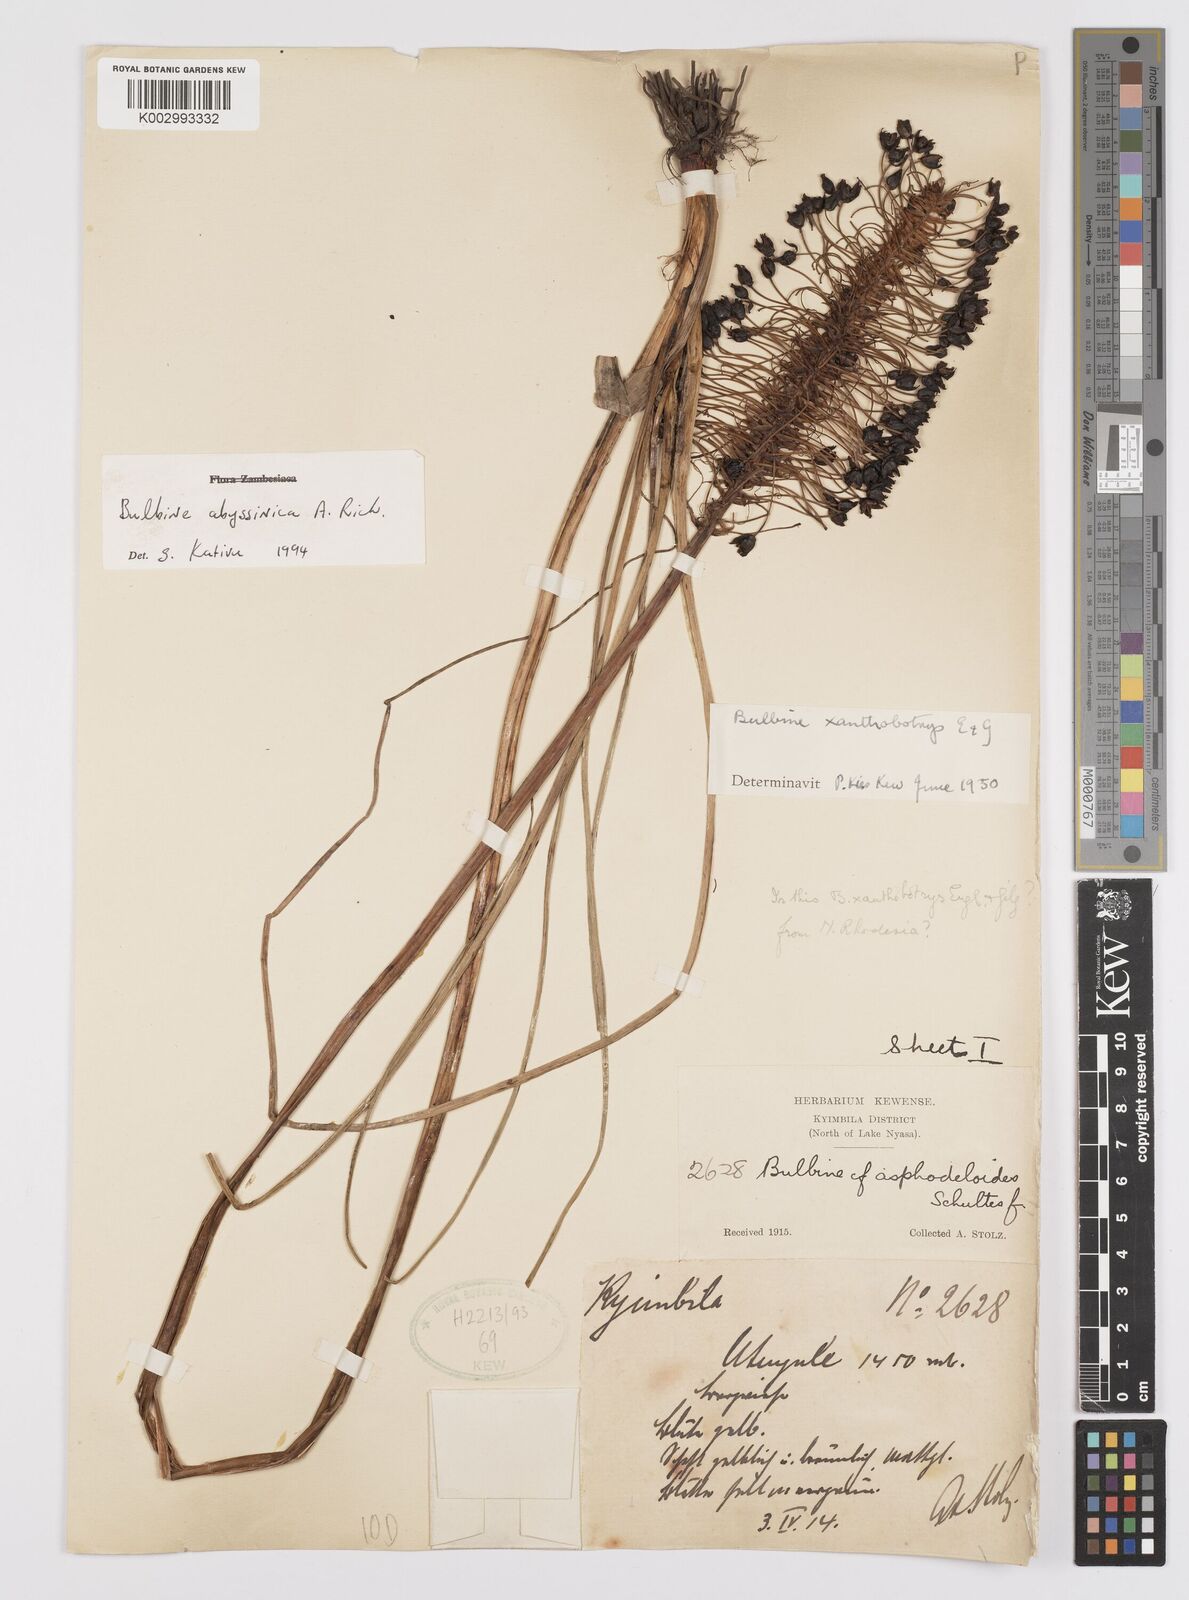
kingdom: Plantae
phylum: Tracheophyta
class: Liliopsida
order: Asparagales
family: Asphodelaceae
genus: Bulbine
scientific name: Bulbine abyssinica
